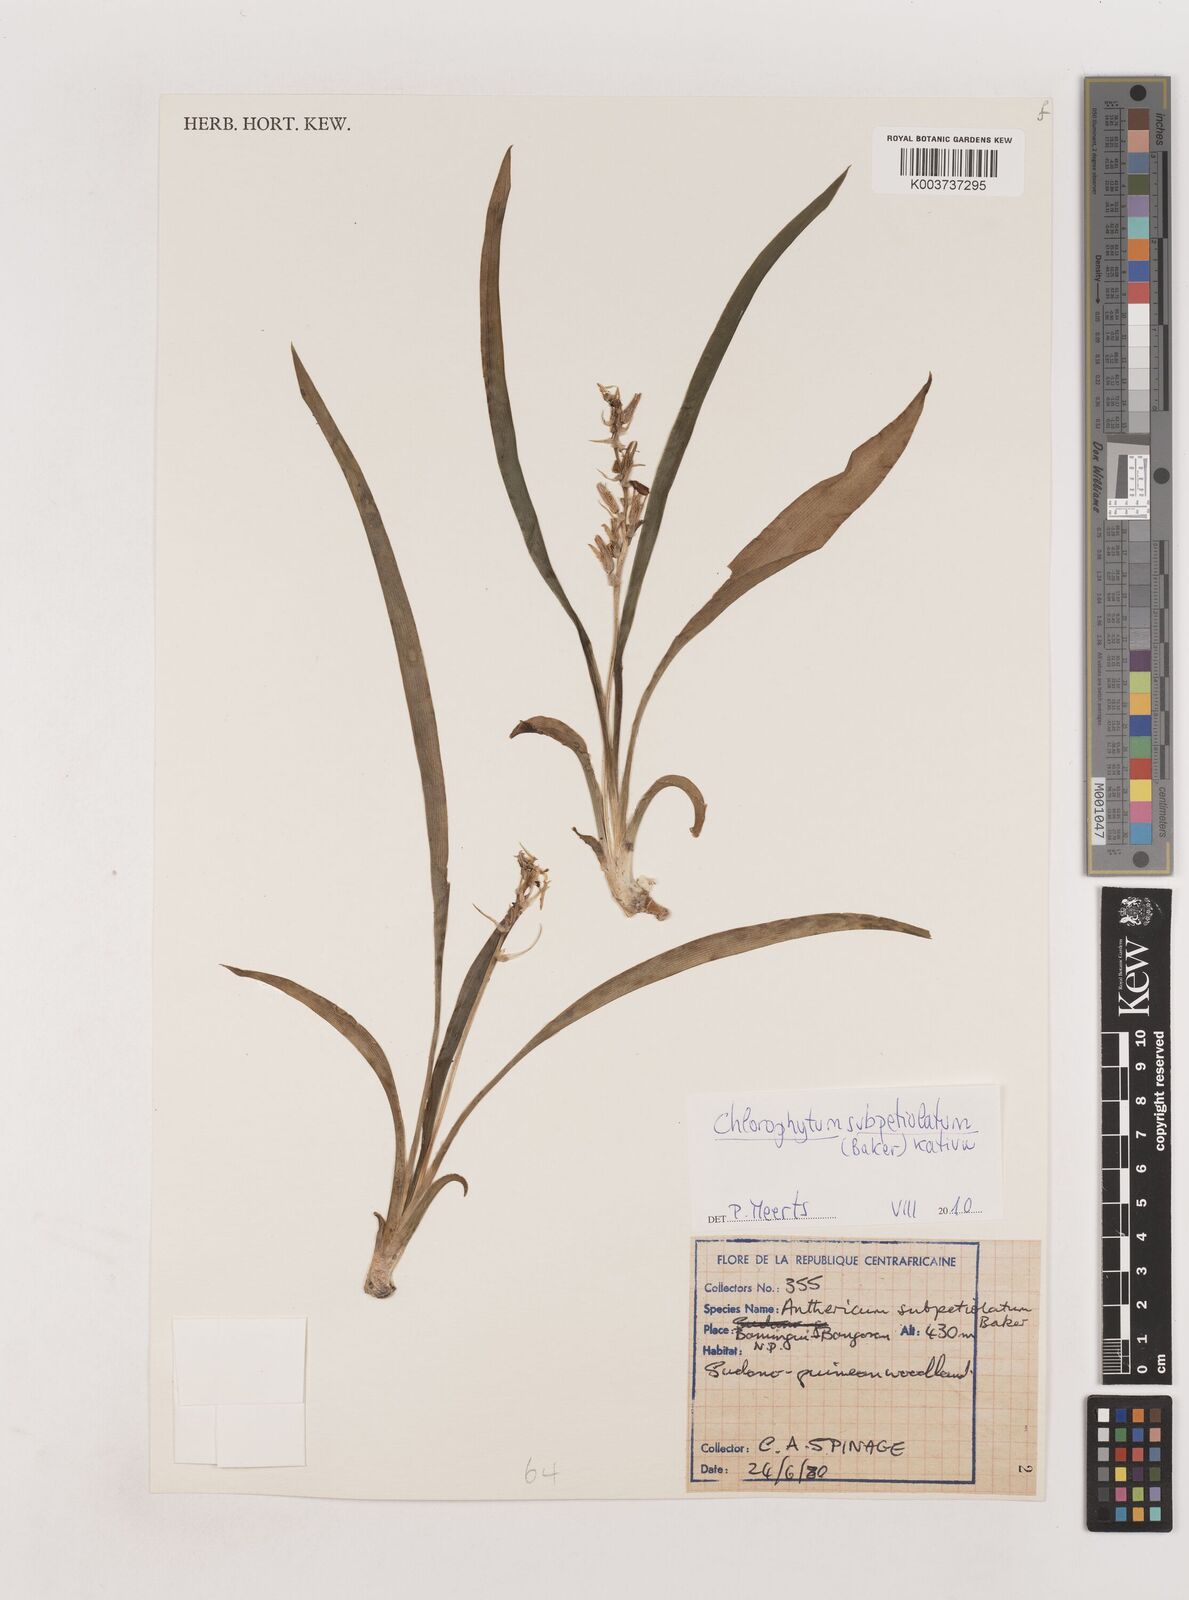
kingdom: Plantae
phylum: Tracheophyta
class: Liliopsida
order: Asparagales
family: Asparagaceae
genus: Chlorophytum
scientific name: Chlorophytum subpetiolatum
